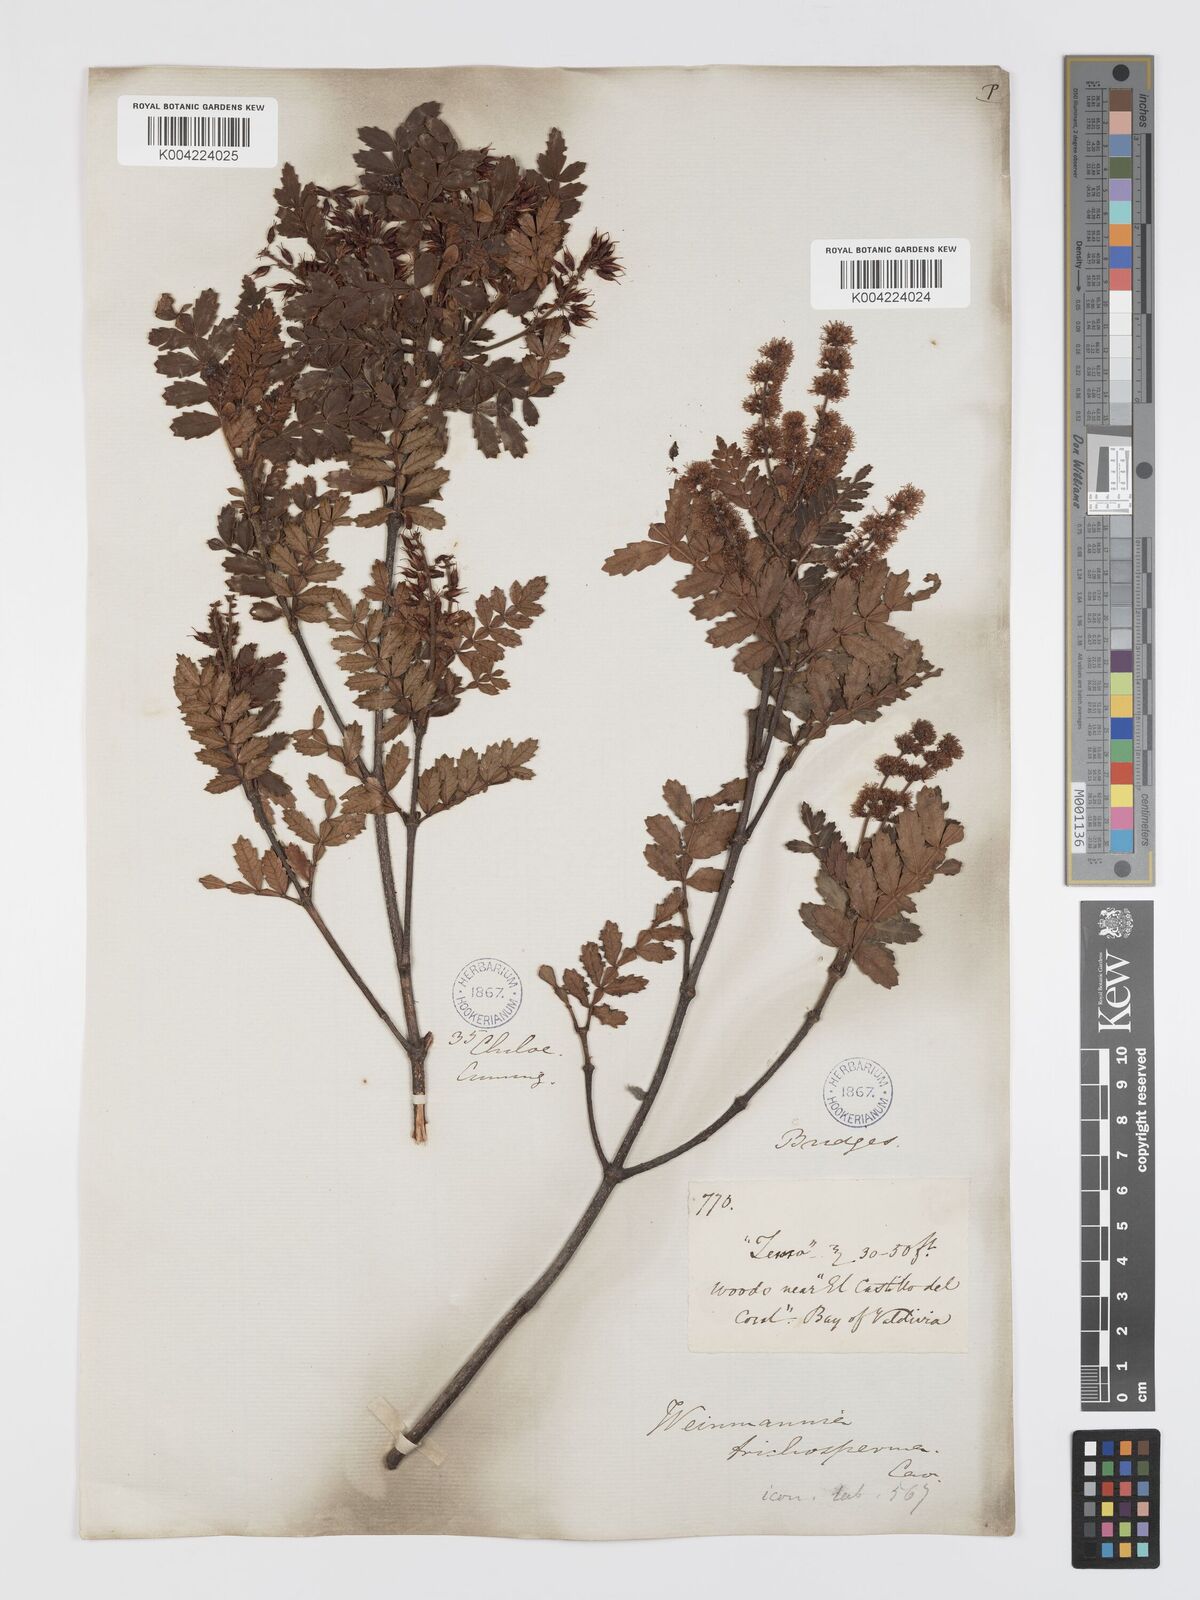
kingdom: Plantae
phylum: Tracheophyta
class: Magnoliopsida
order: Oxalidales
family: Cunoniaceae
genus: Weinmannia
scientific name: Weinmannia trichosperma
